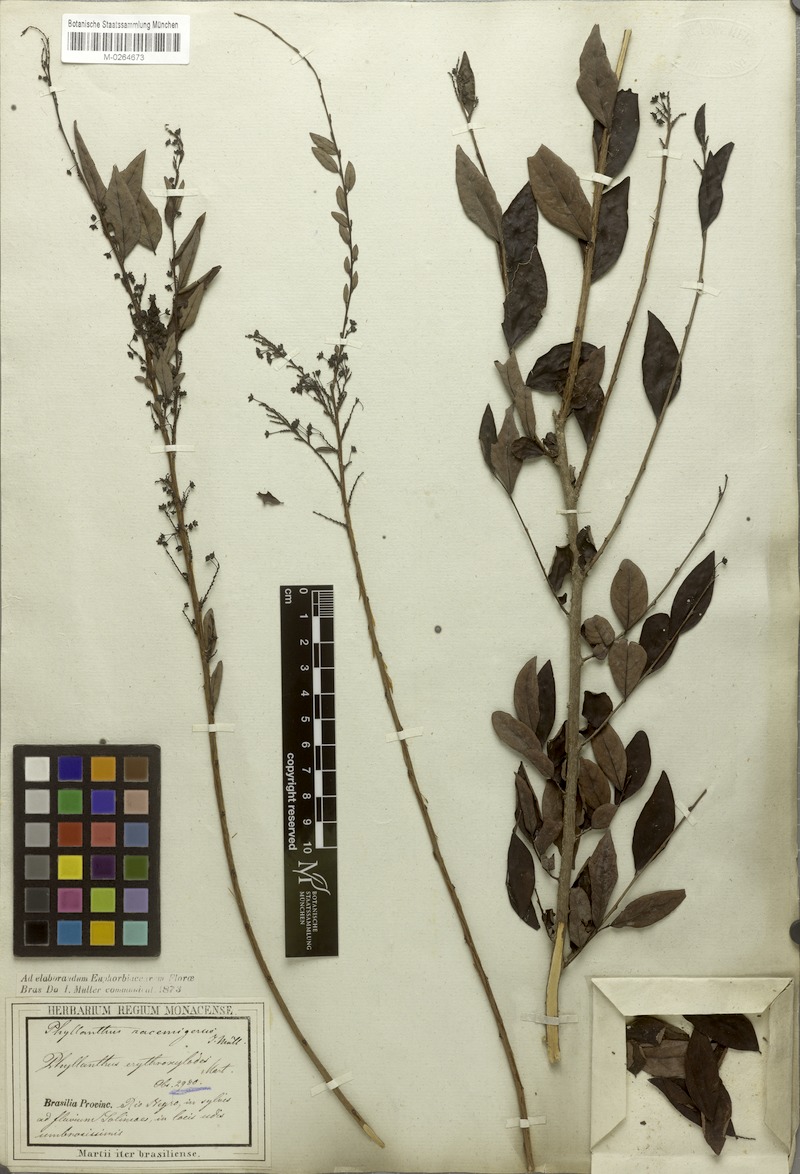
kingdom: Plantae
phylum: Tracheophyta
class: Magnoliopsida
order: Malpighiales
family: Phyllanthaceae
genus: Phyllanthus
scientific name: Phyllanthus racemiger
